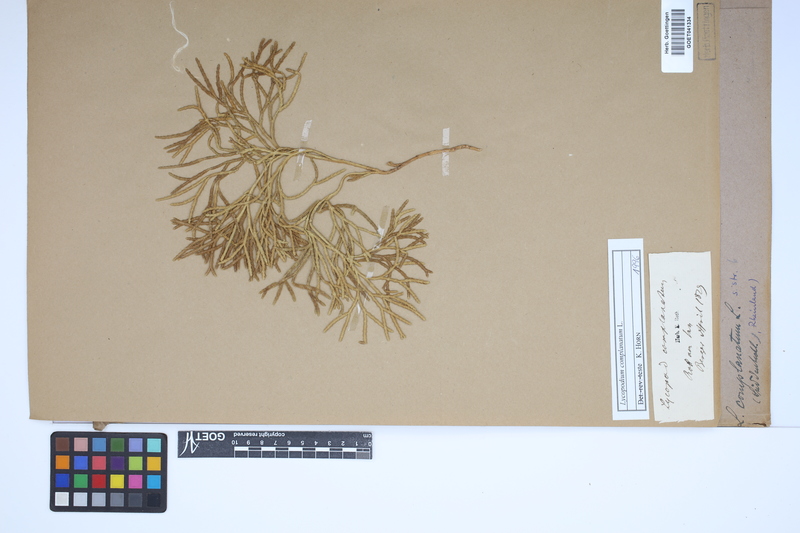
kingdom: Plantae
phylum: Tracheophyta
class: Lycopodiopsida
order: Lycopodiales
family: Lycopodiaceae
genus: Diphasiastrum
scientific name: Diphasiastrum complanatum
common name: Northern running-pine
